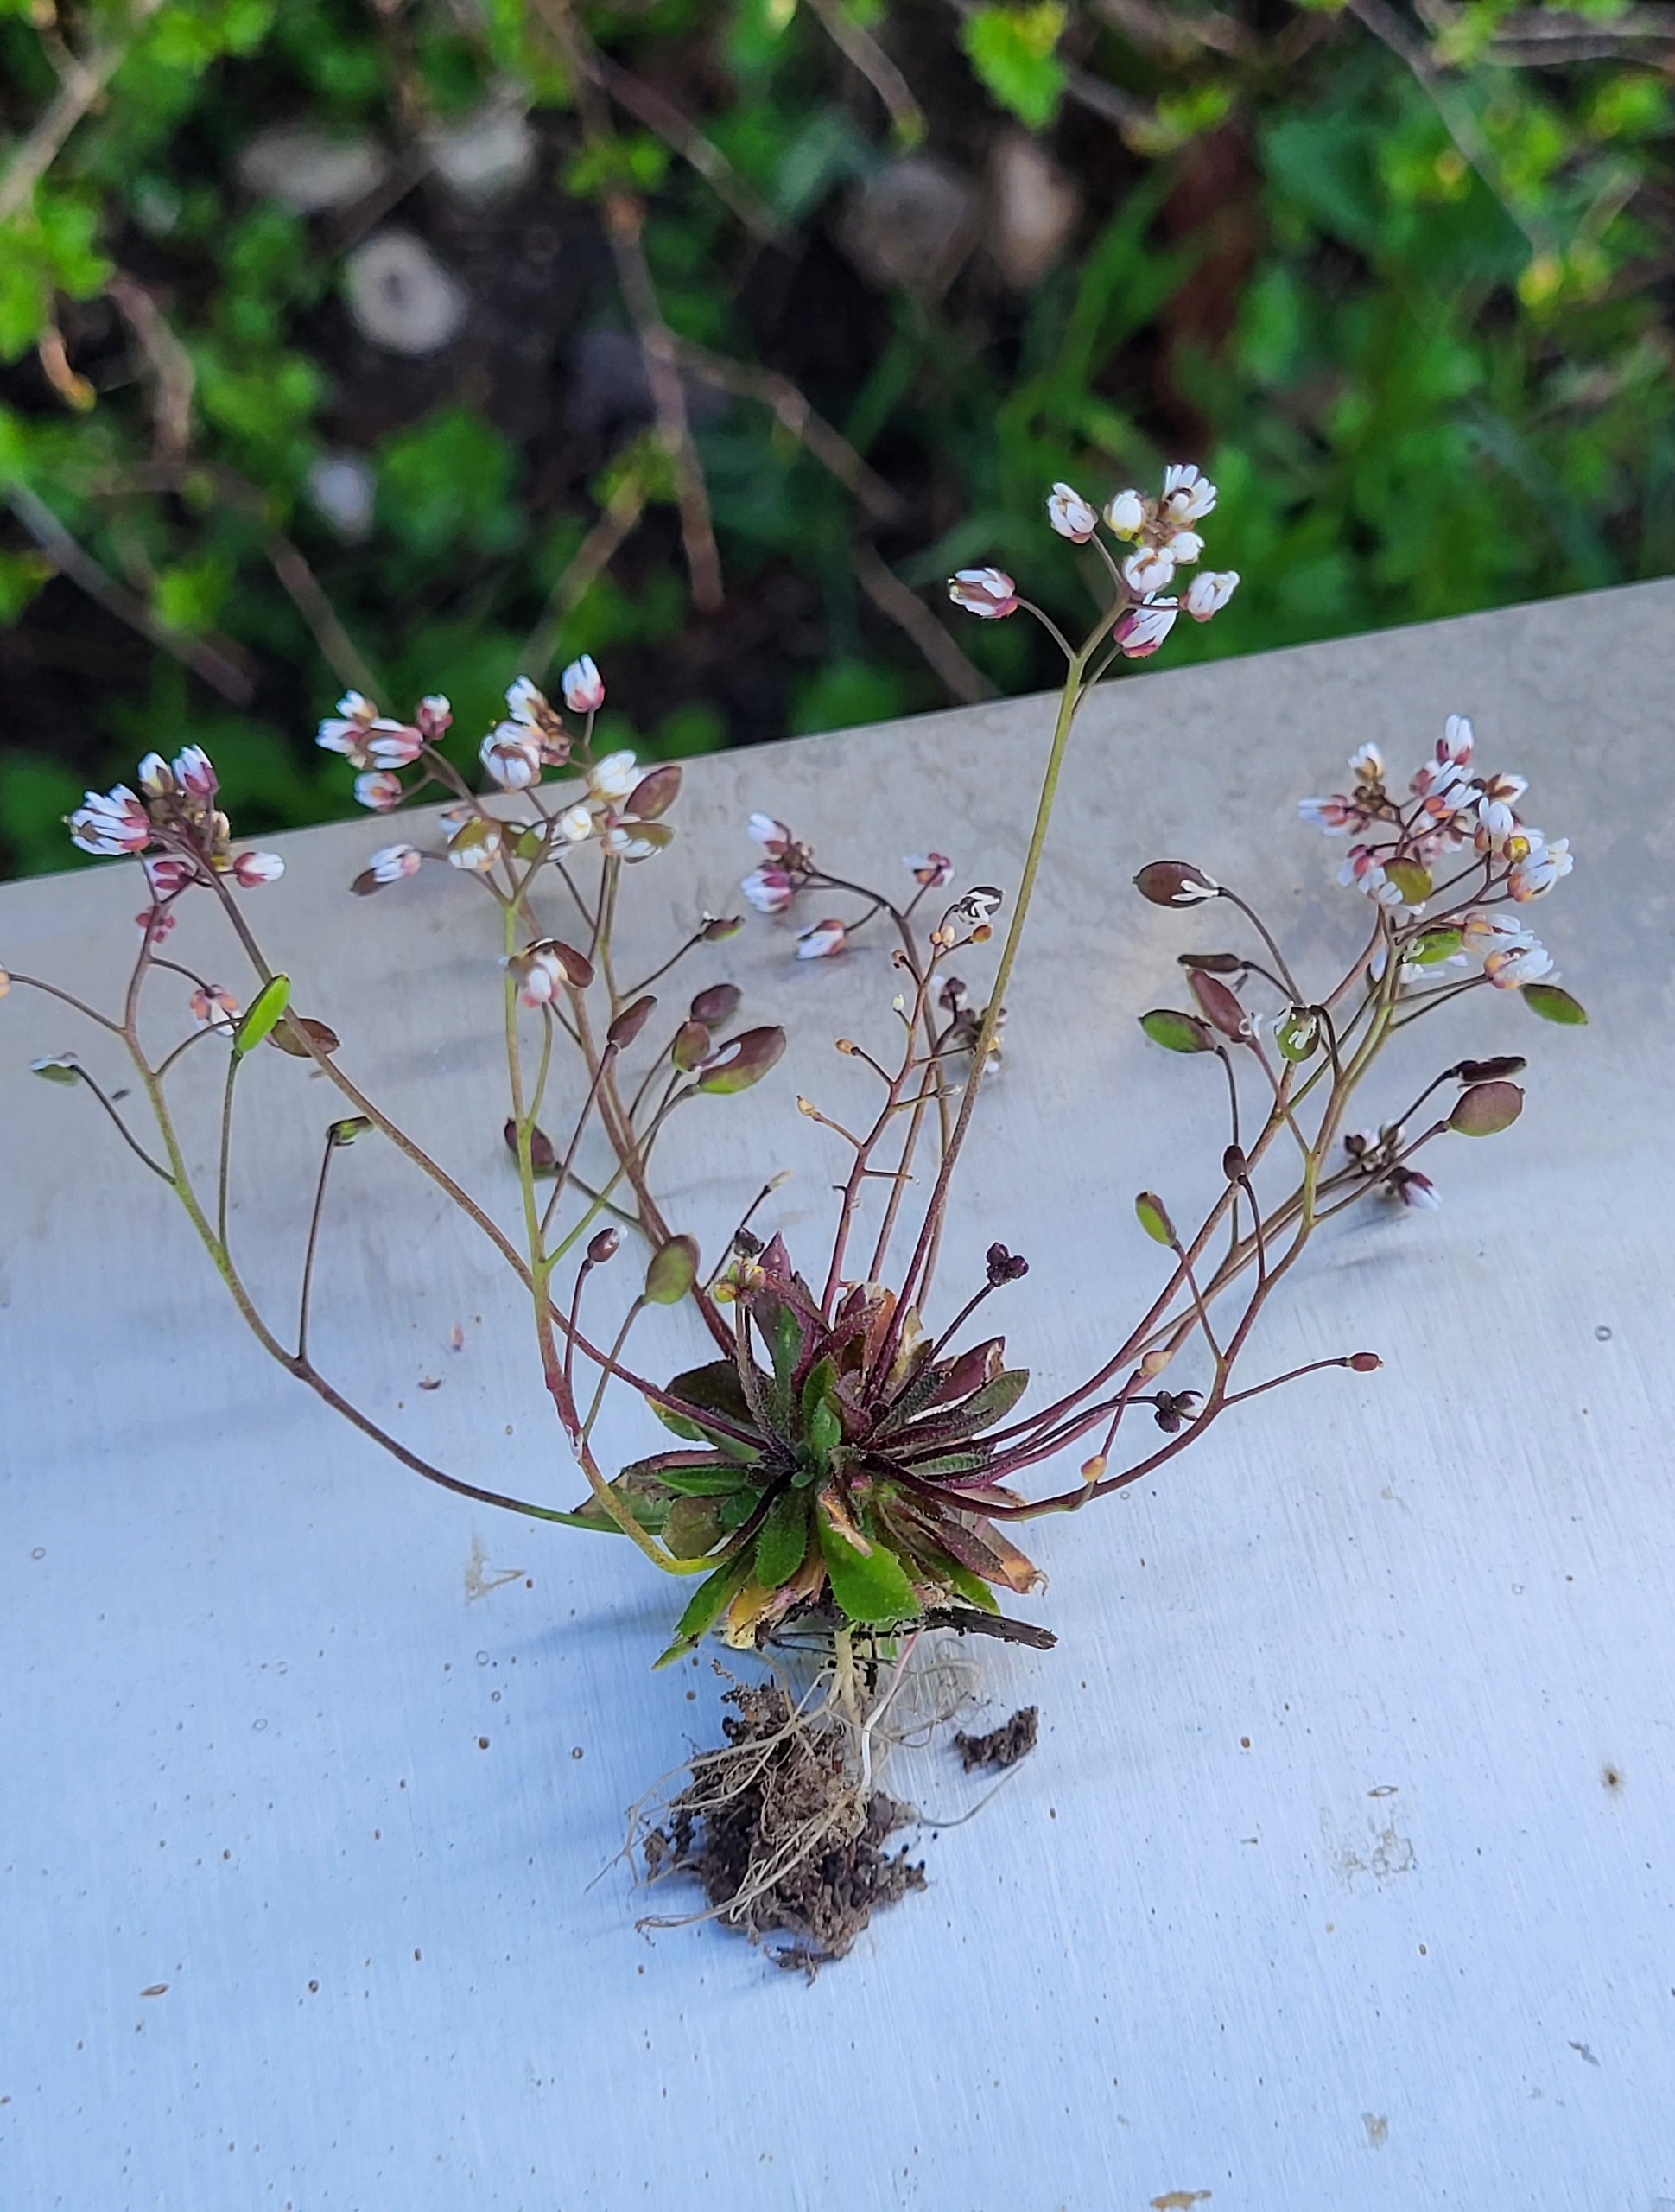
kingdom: Plantae
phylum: Tracheophyta
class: Magnoliopsida
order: Brassicales
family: Brassicaceae
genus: Draba
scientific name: Draba verna
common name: Vår-gæslingeblomst
